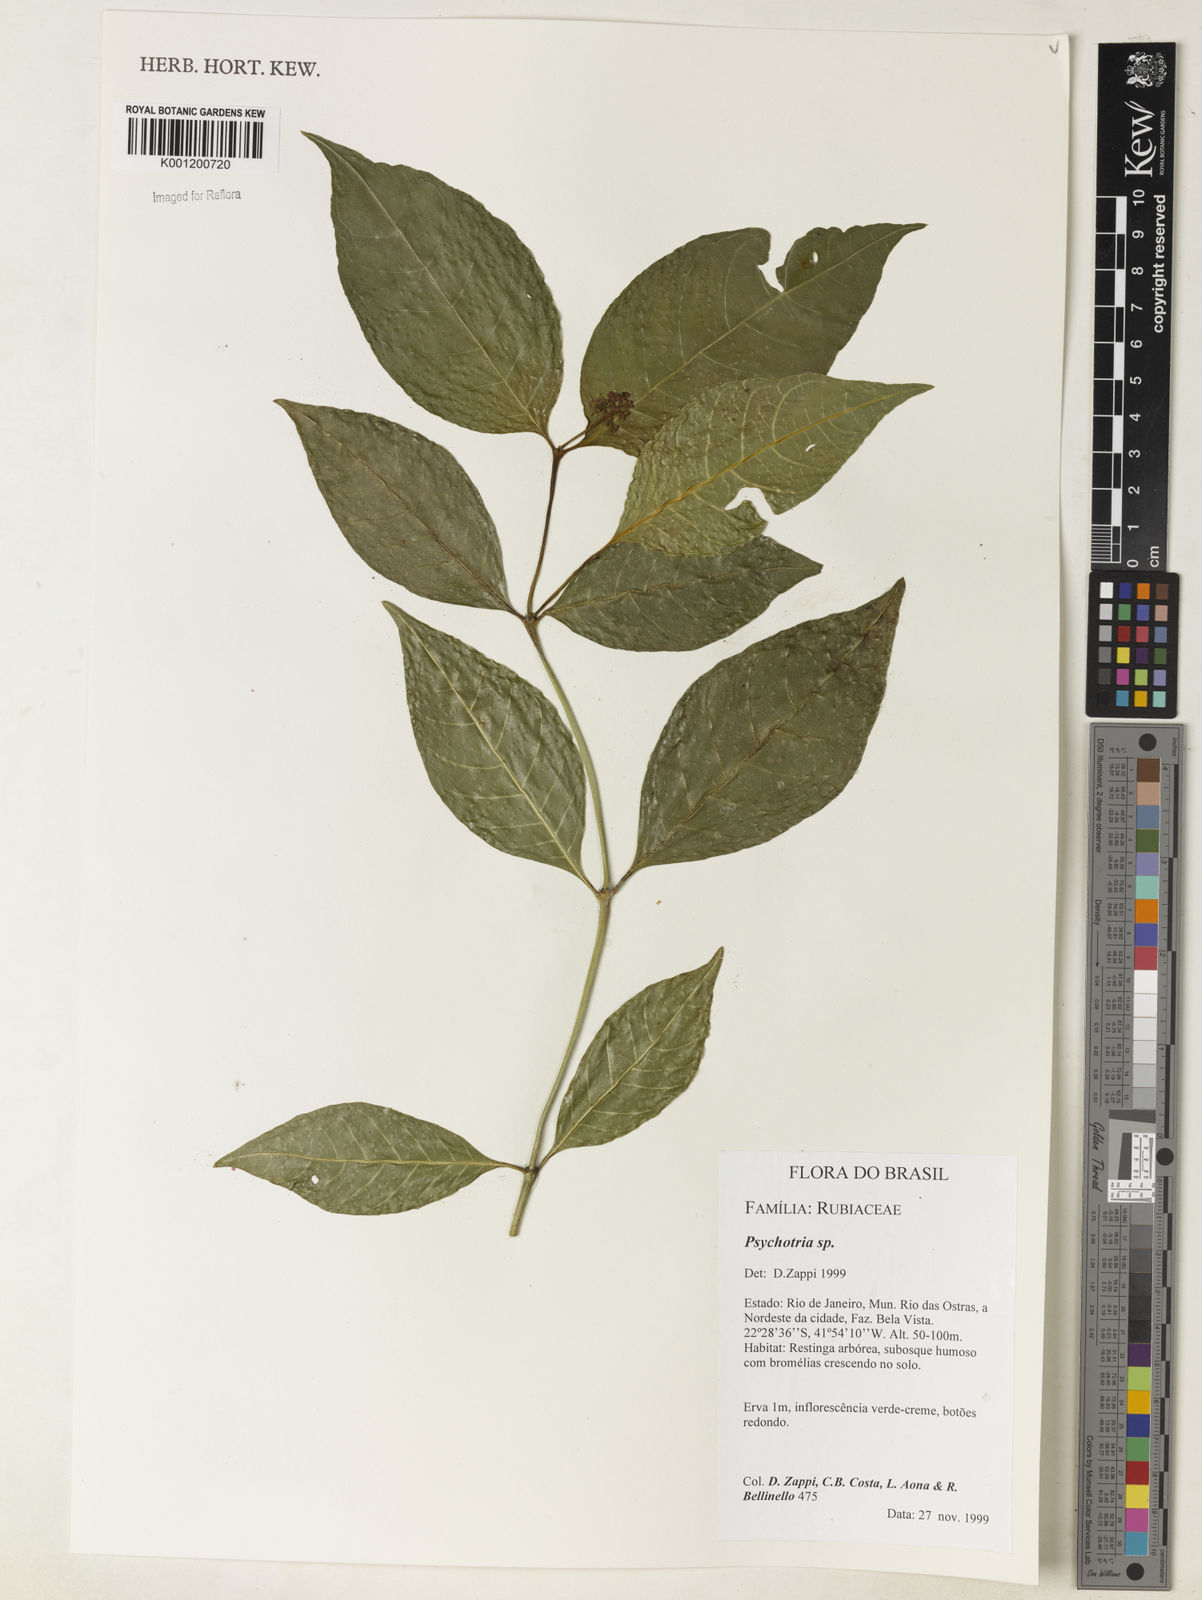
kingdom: Plantae
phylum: Tracheophyta
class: Magnoliopsida
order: Gentianales
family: Rubiaceae
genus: Psychotria
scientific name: Psychotria
